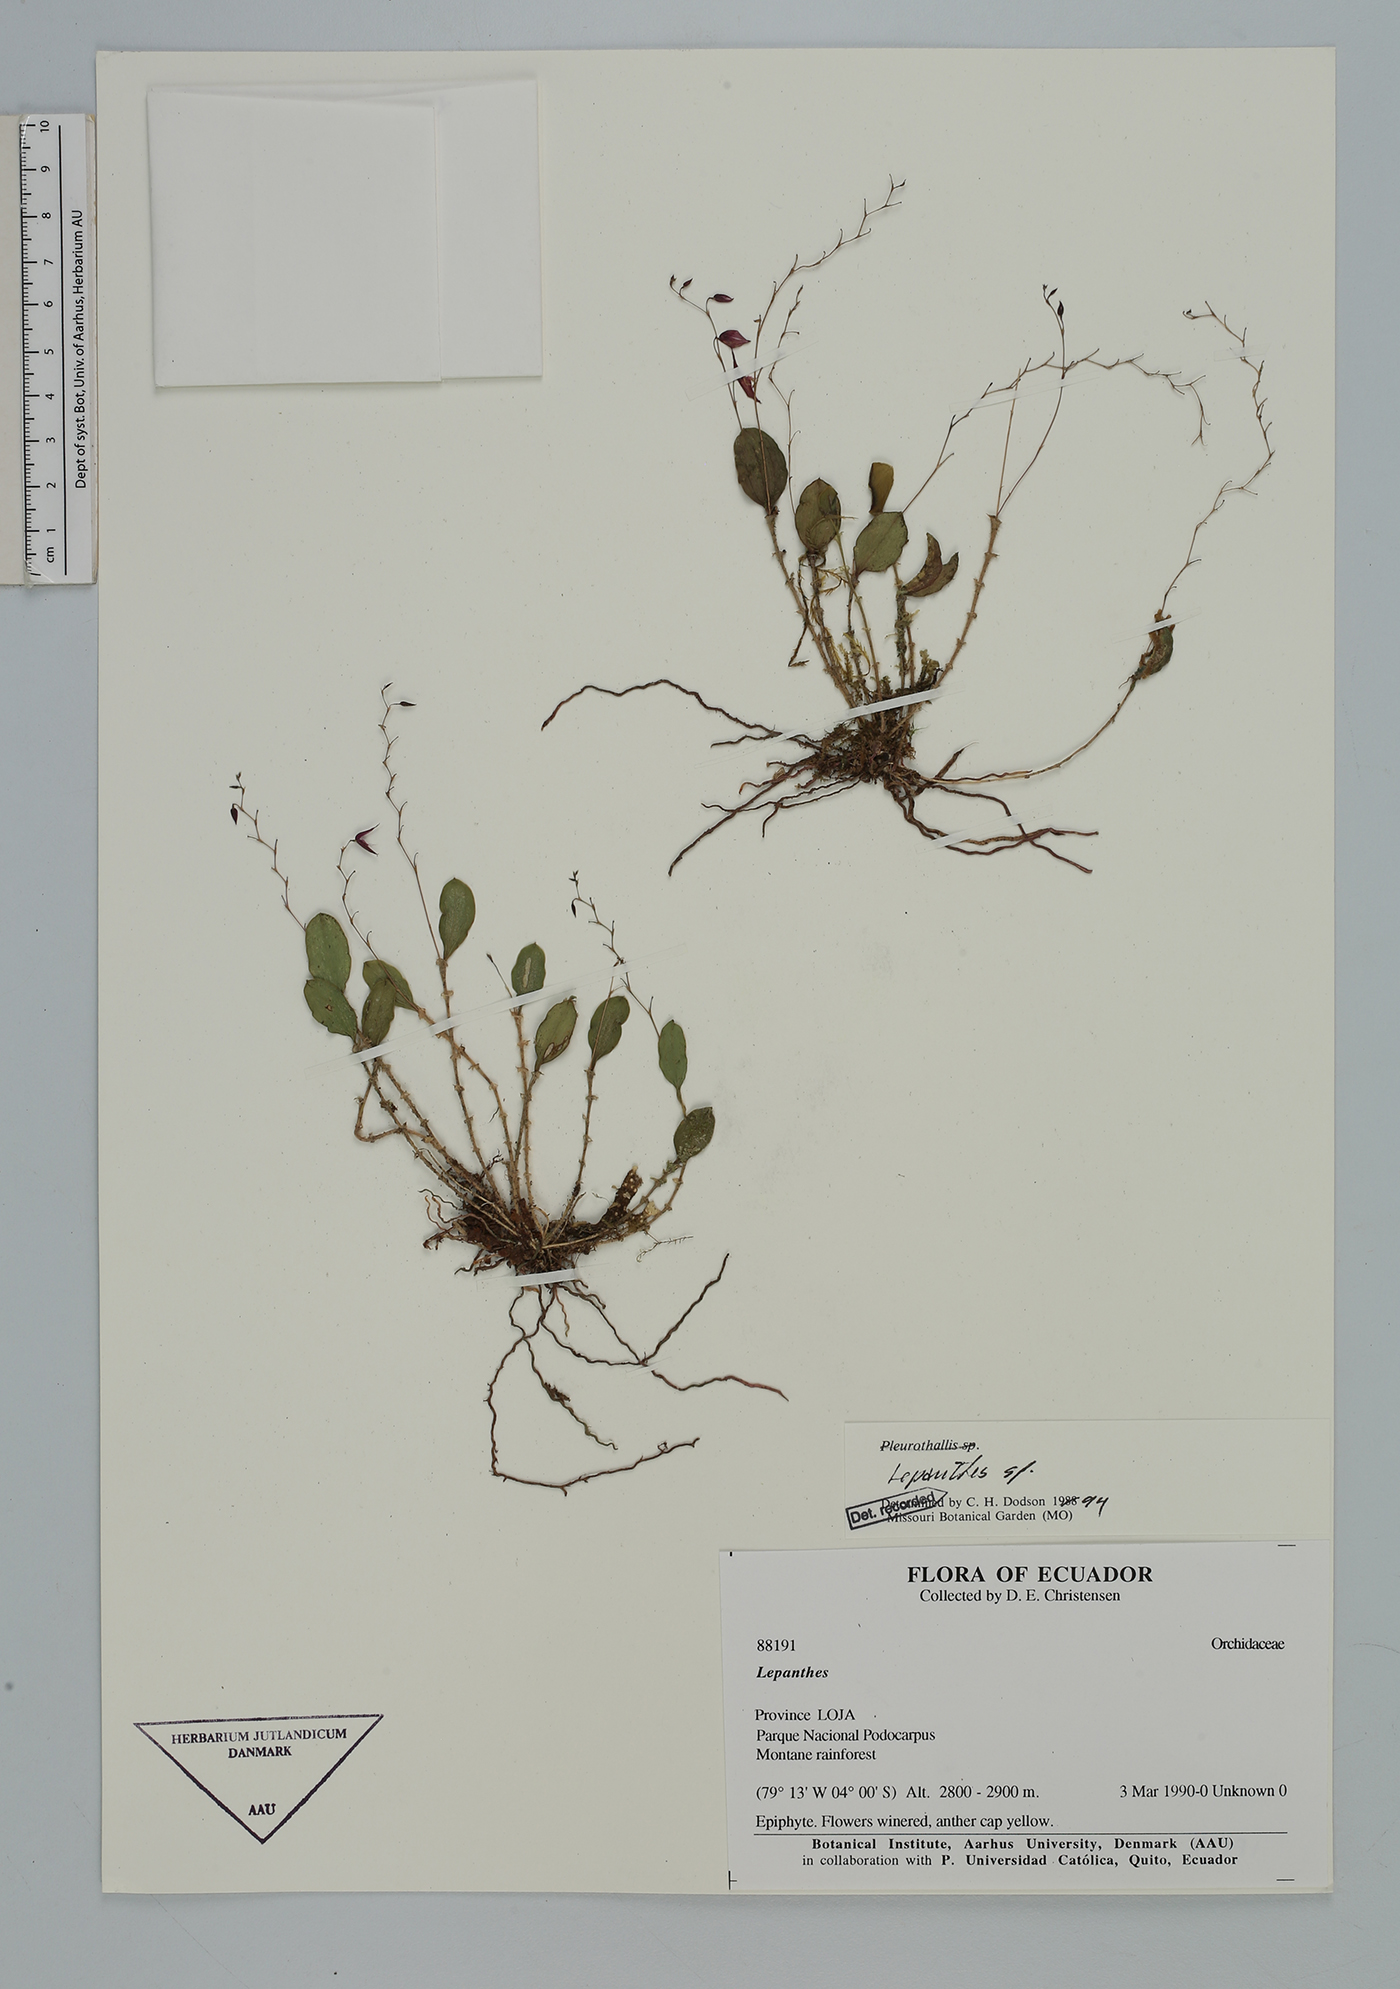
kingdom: Plantae
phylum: Tracheophyta
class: Liliopsida
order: Asparagales
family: Orchidaceae
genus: Lepanthes
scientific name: Lepanthes
